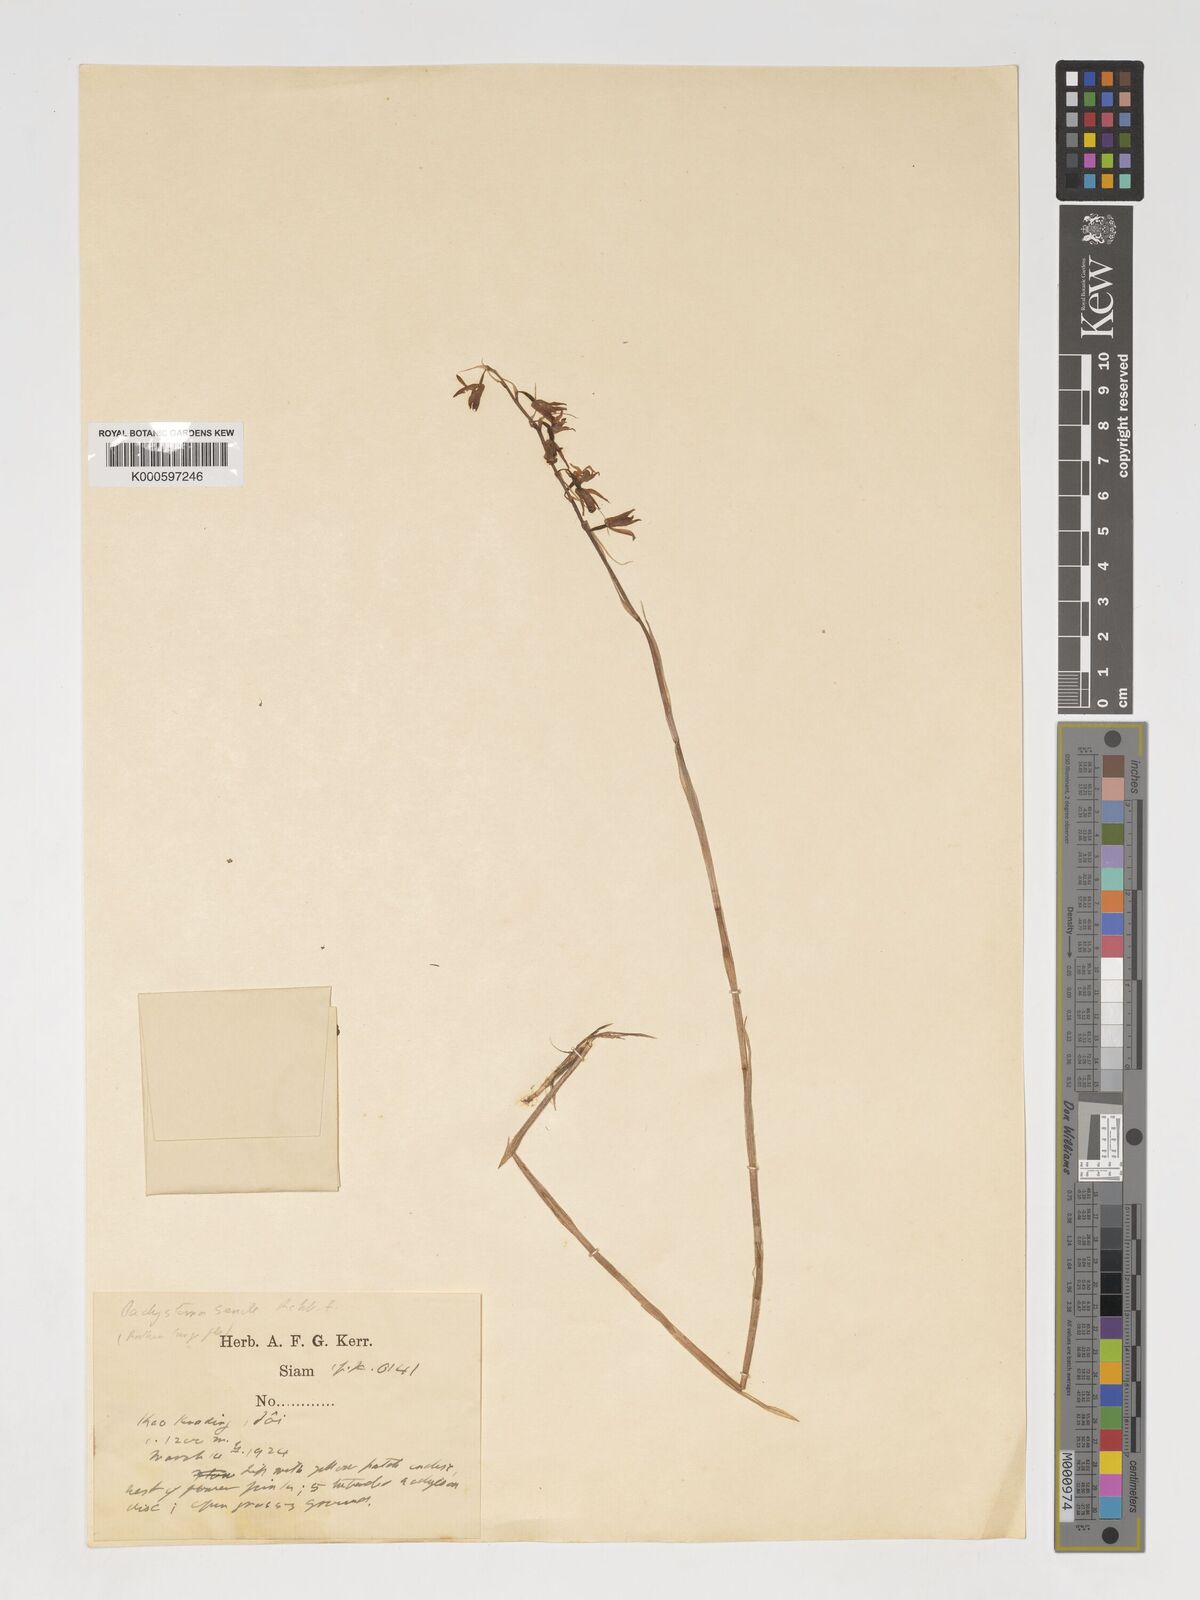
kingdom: Plantae
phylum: Tracheophyta
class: Liliopsida
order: Asparagales
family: Orchidaceae
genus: Pachystoma
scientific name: Pachystoma pubescens
